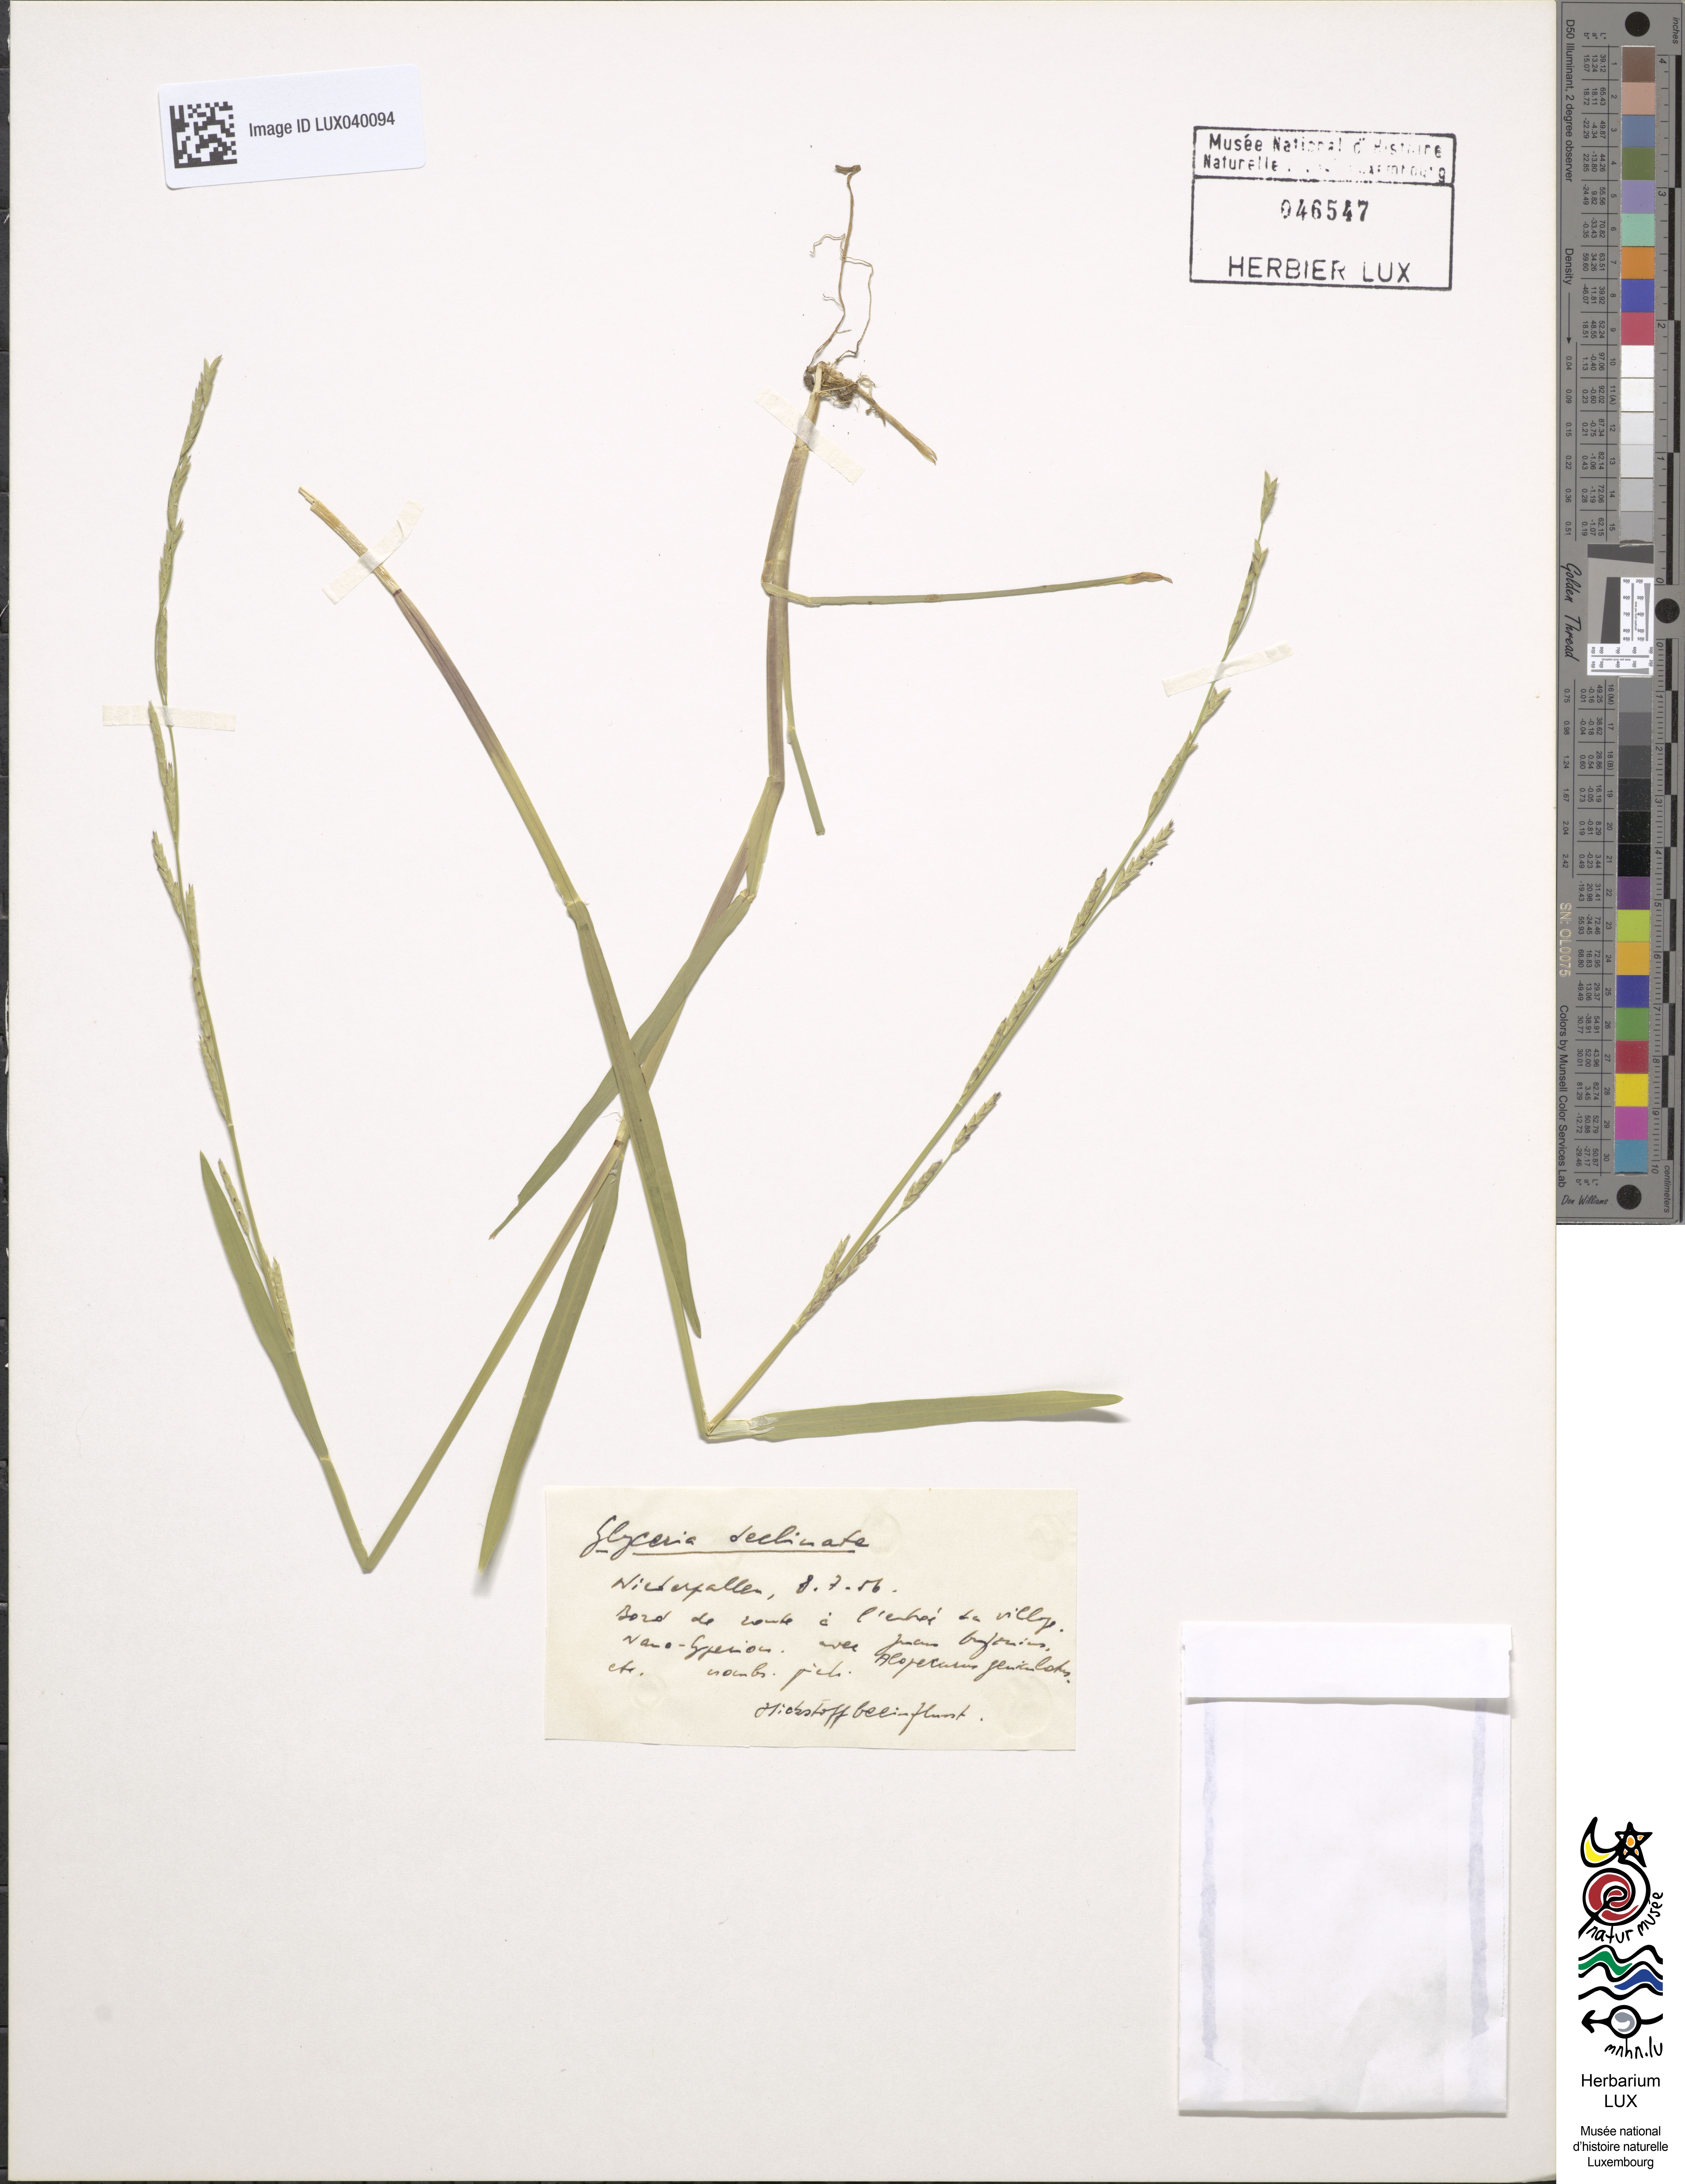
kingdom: Plantae
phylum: Tracheophyta
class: Liliopsida
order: Poales
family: Poaceae
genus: Glyceria
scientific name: Glyceria declinata
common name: Small sweet-grass
